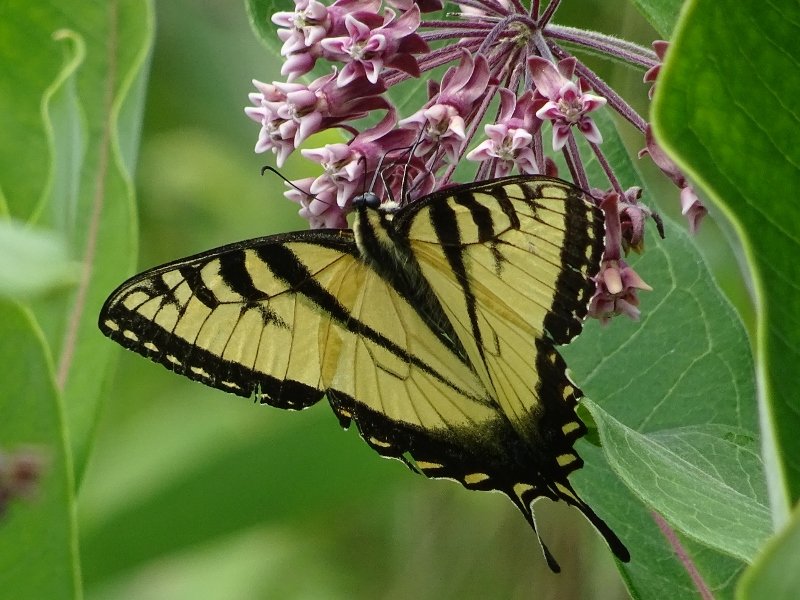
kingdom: Animalia
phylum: Arthropoda
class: Insecta
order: Lepidoptera
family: Papilionidae
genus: Pterourus
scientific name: Pterourus glaucus
